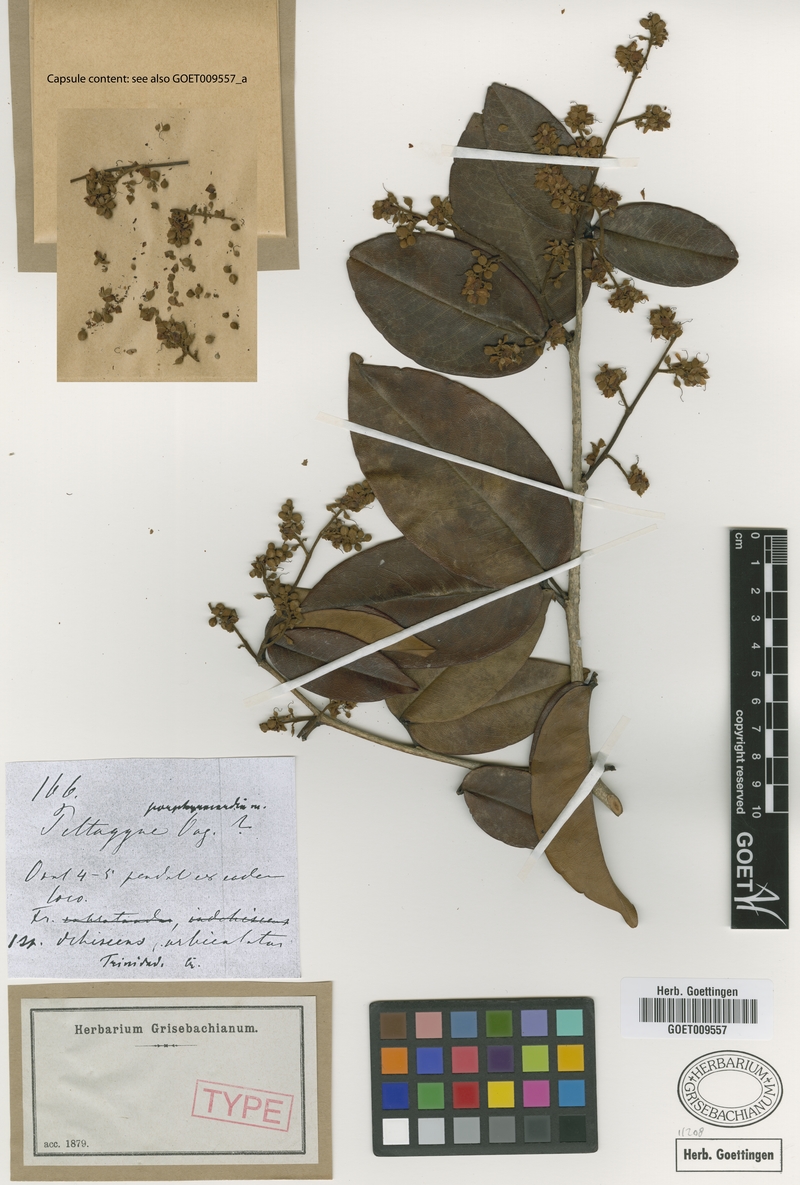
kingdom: Plantae
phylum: Tracheophyta
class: Magnoliopsida
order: Fabales
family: Fabaceae
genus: Peltogyne
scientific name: Peltogyne floribunda
